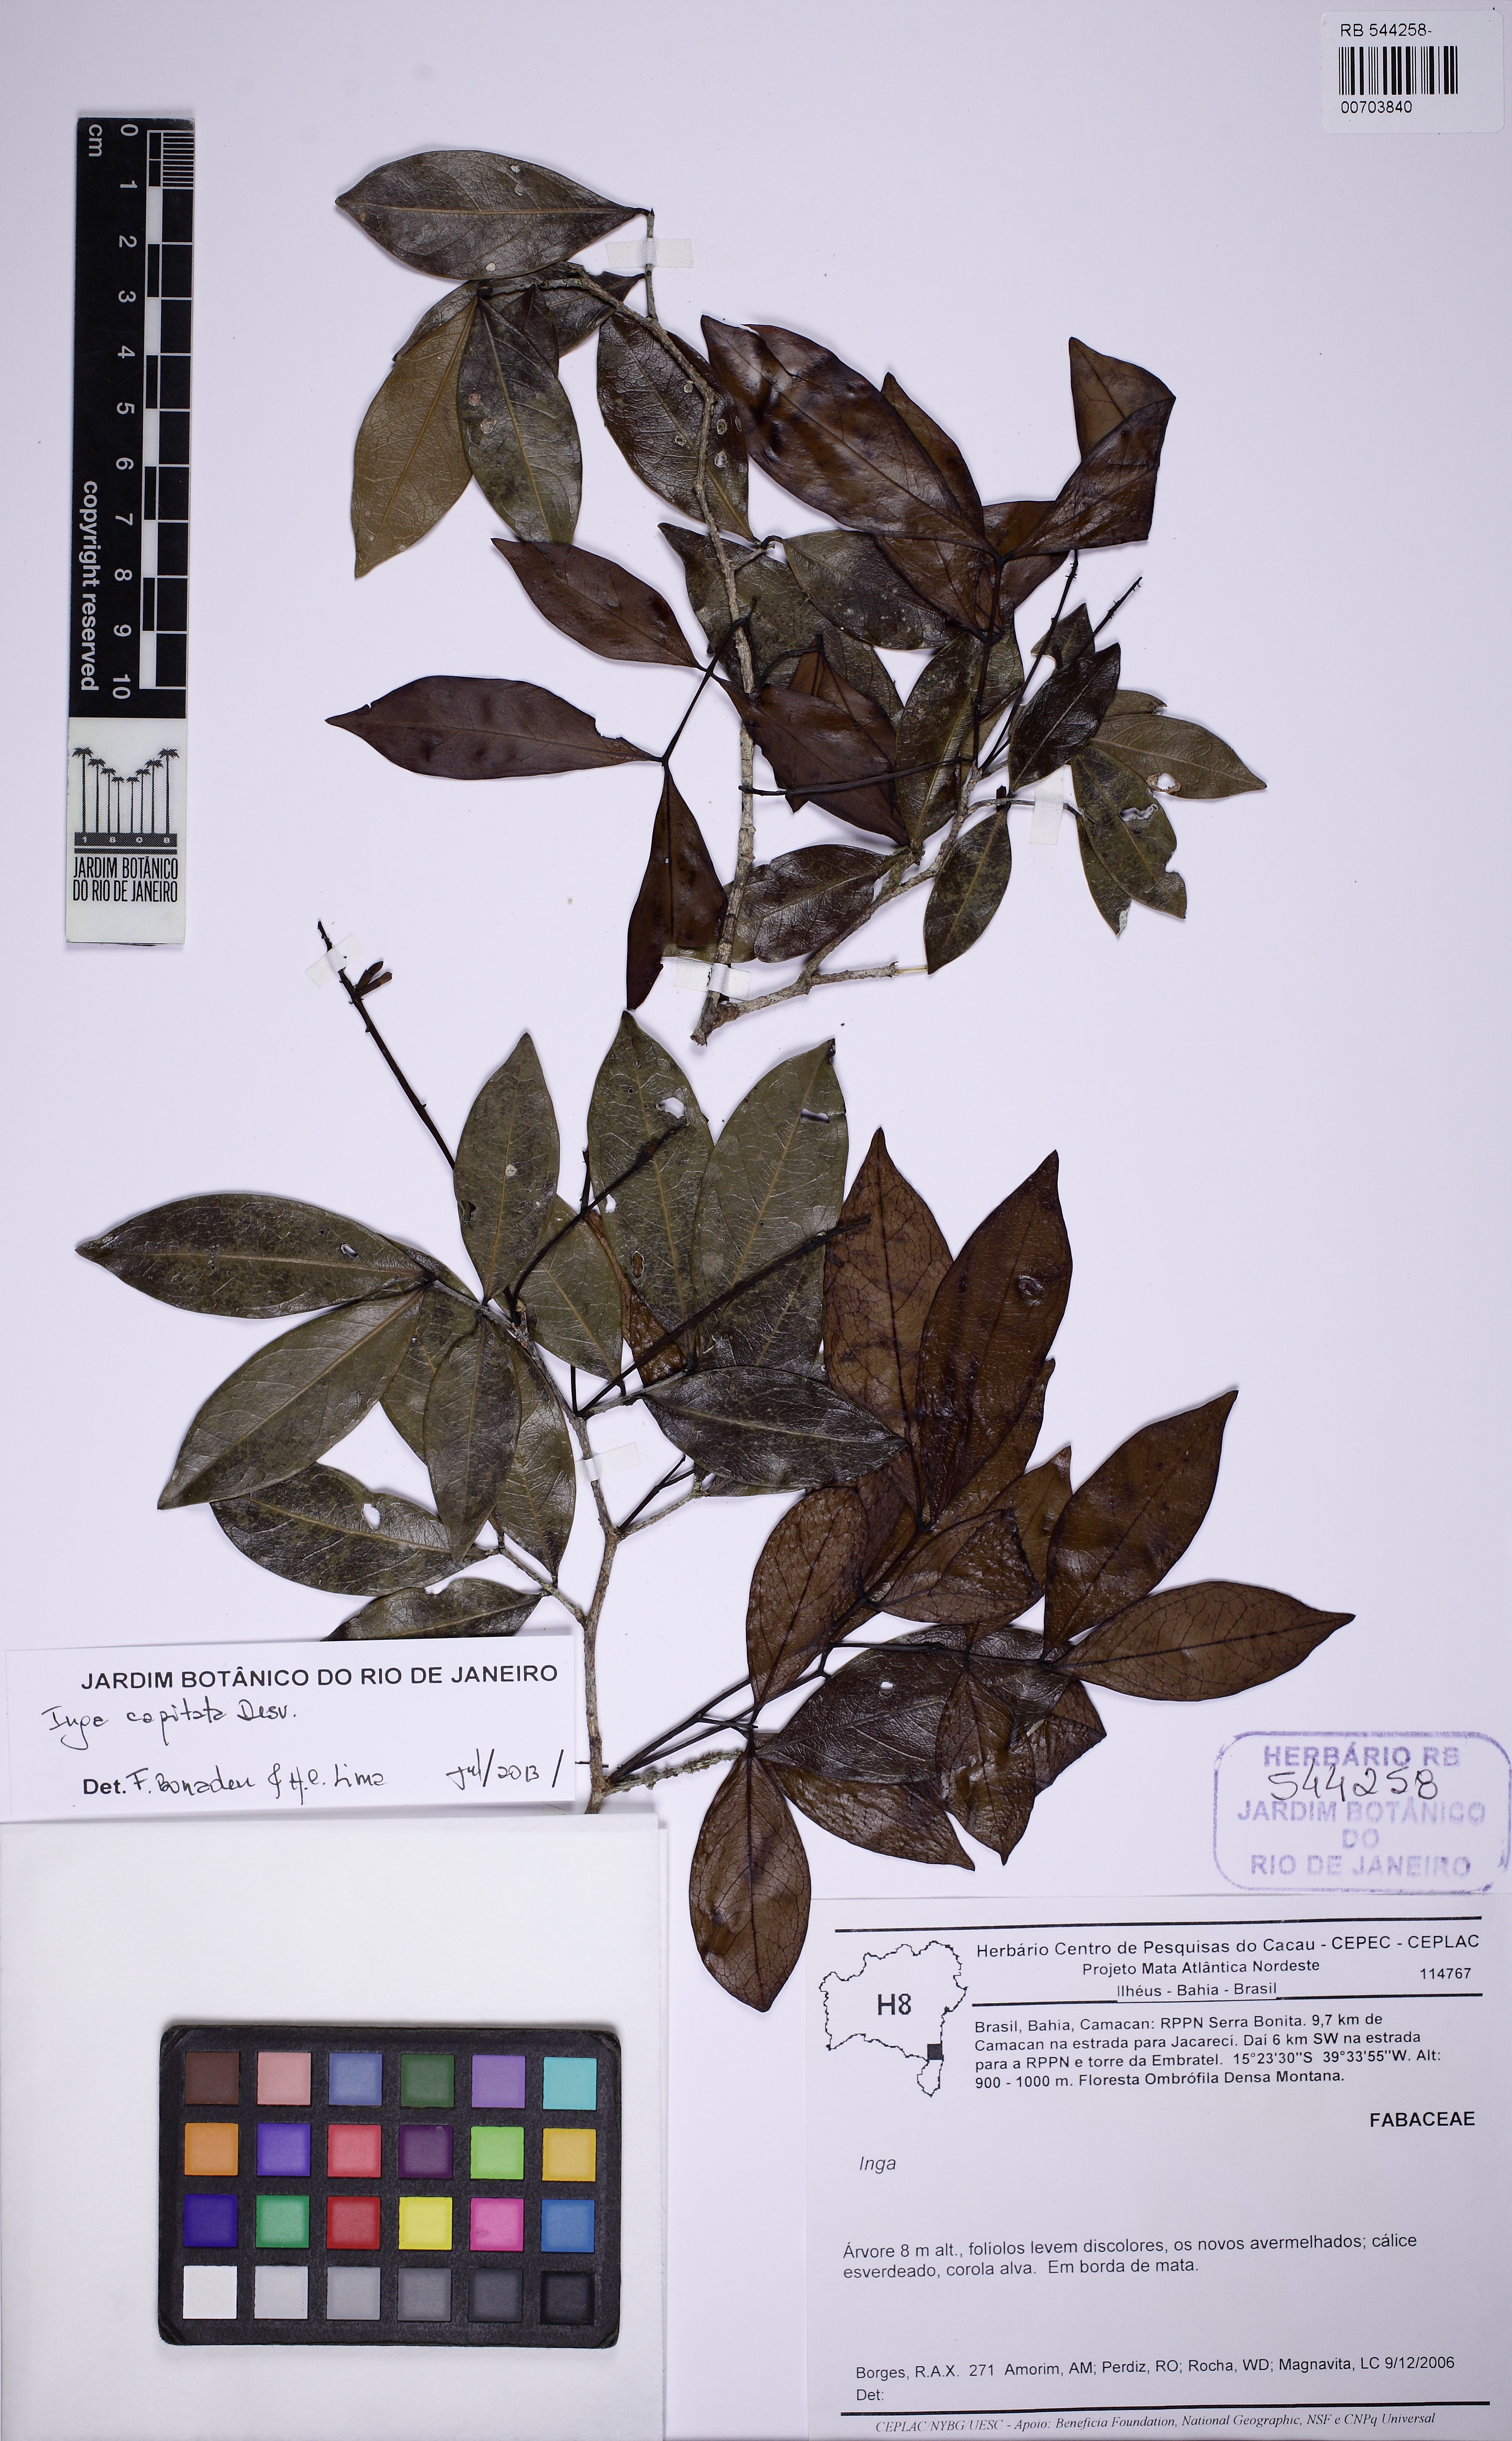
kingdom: Plantae
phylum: Tracheophyta
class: Magnoliopsida
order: Fabales
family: Fabaceae
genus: Inga
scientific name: Inga capitata
